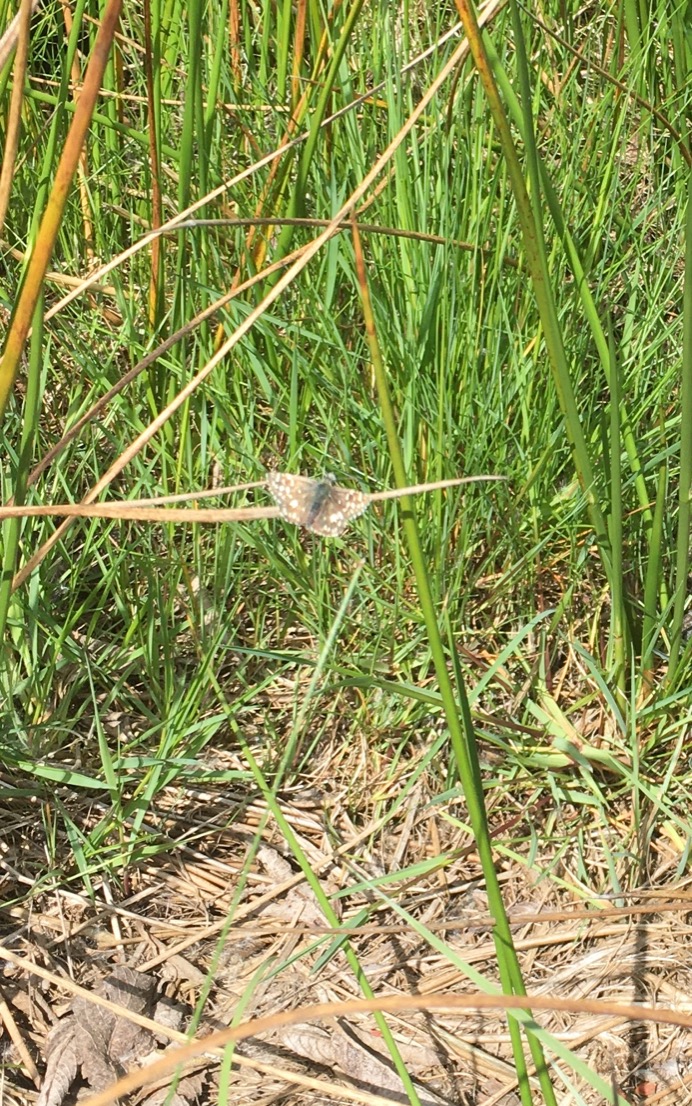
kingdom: Animalia
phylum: Arthropoda
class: Insecta
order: Lepidoptera
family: Hesperiidae
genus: Pyrgus
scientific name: Pyrgus malvae
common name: Spættet bredpande
